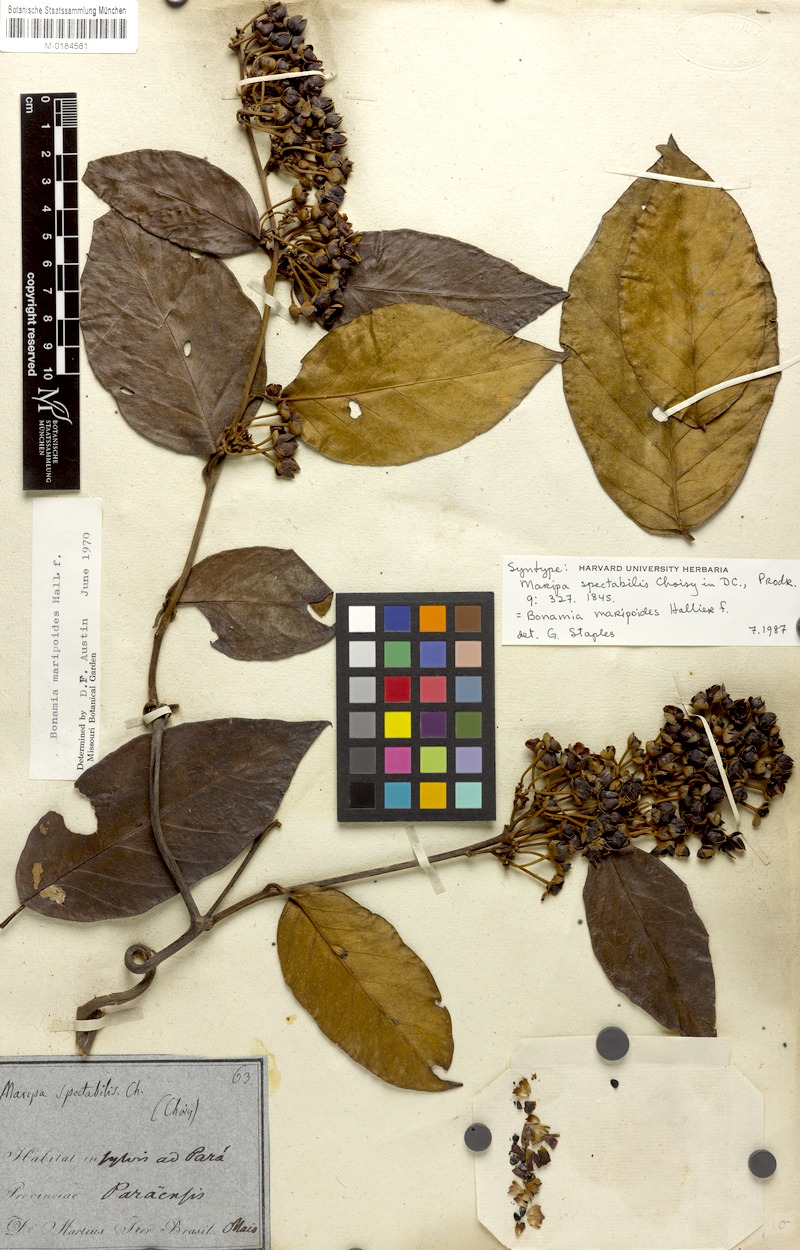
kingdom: Plantae
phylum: Tracheophyta
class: Magnoliopsida
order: Solanales
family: Convolvulaceae
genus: Bonamia
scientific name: Bonamia maripoides
